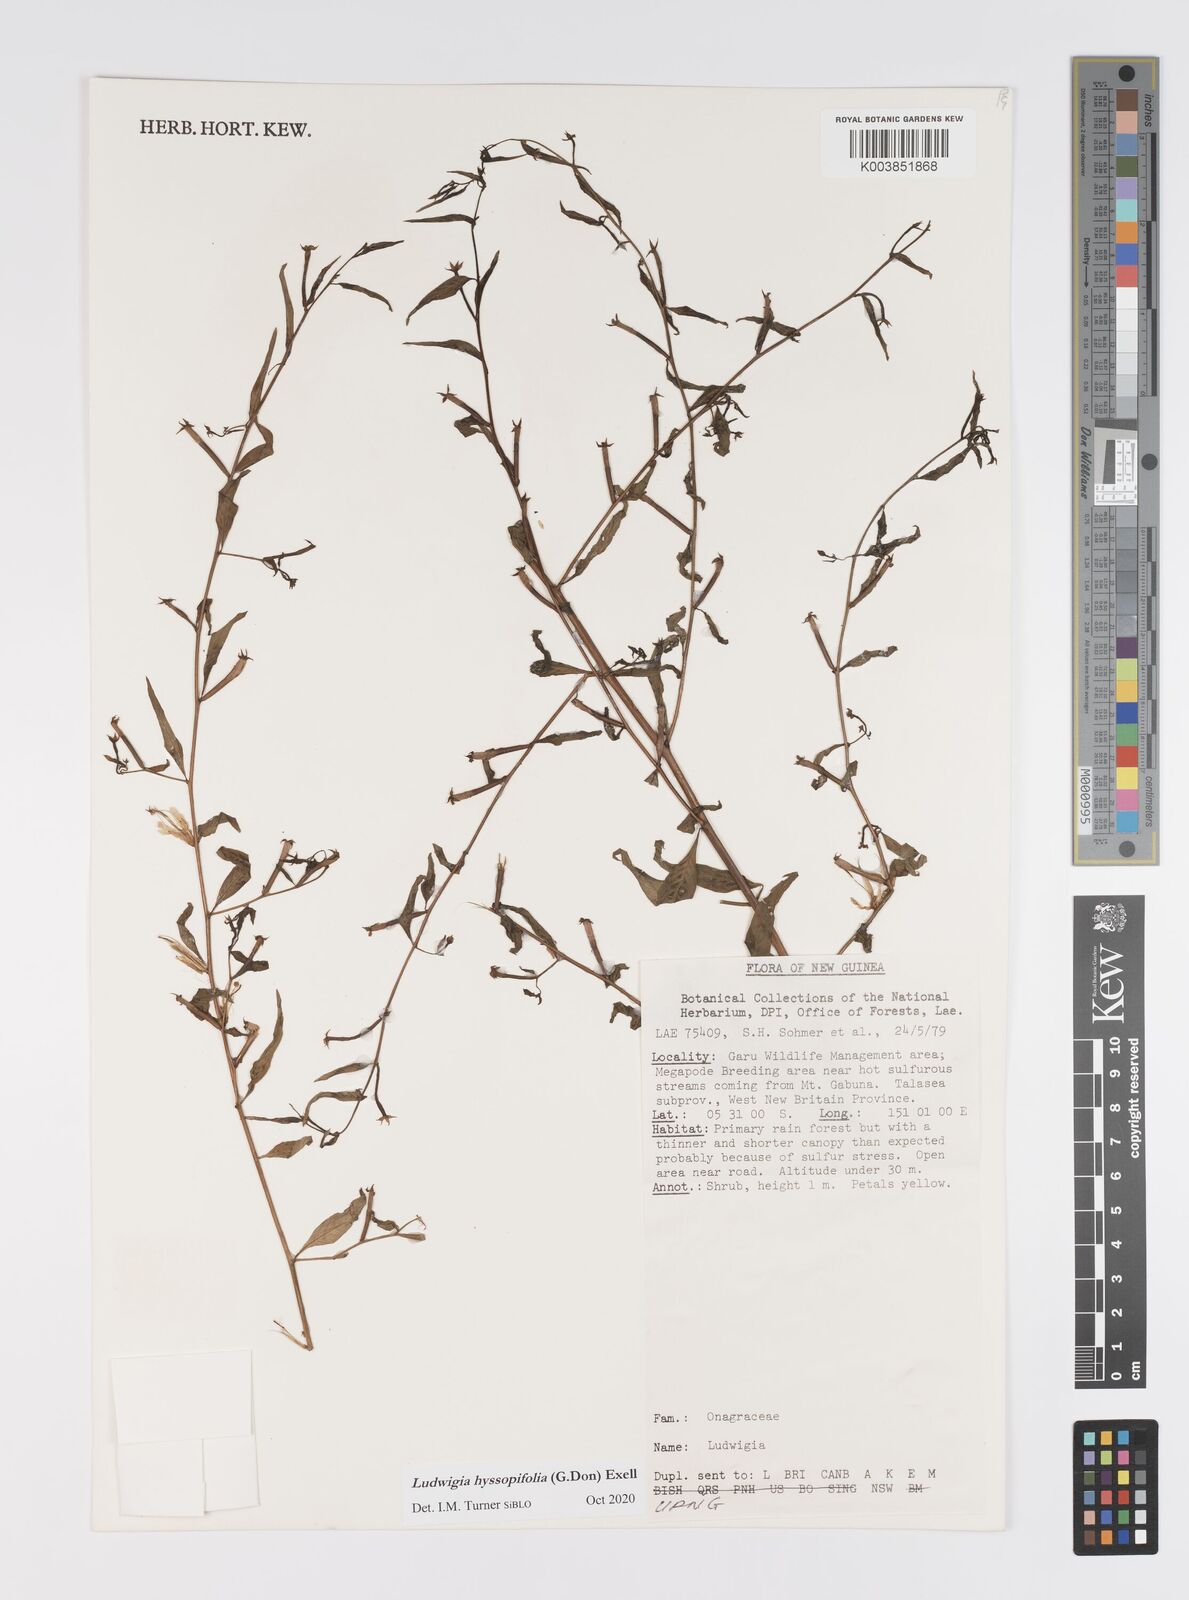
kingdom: Plantae
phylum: Tracheophyta
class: Magnoliopsida
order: Myrtales
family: Onagraceae
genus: Ludwigia
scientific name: Ludwigia hyssopifolia
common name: Linear leaf water primrose
